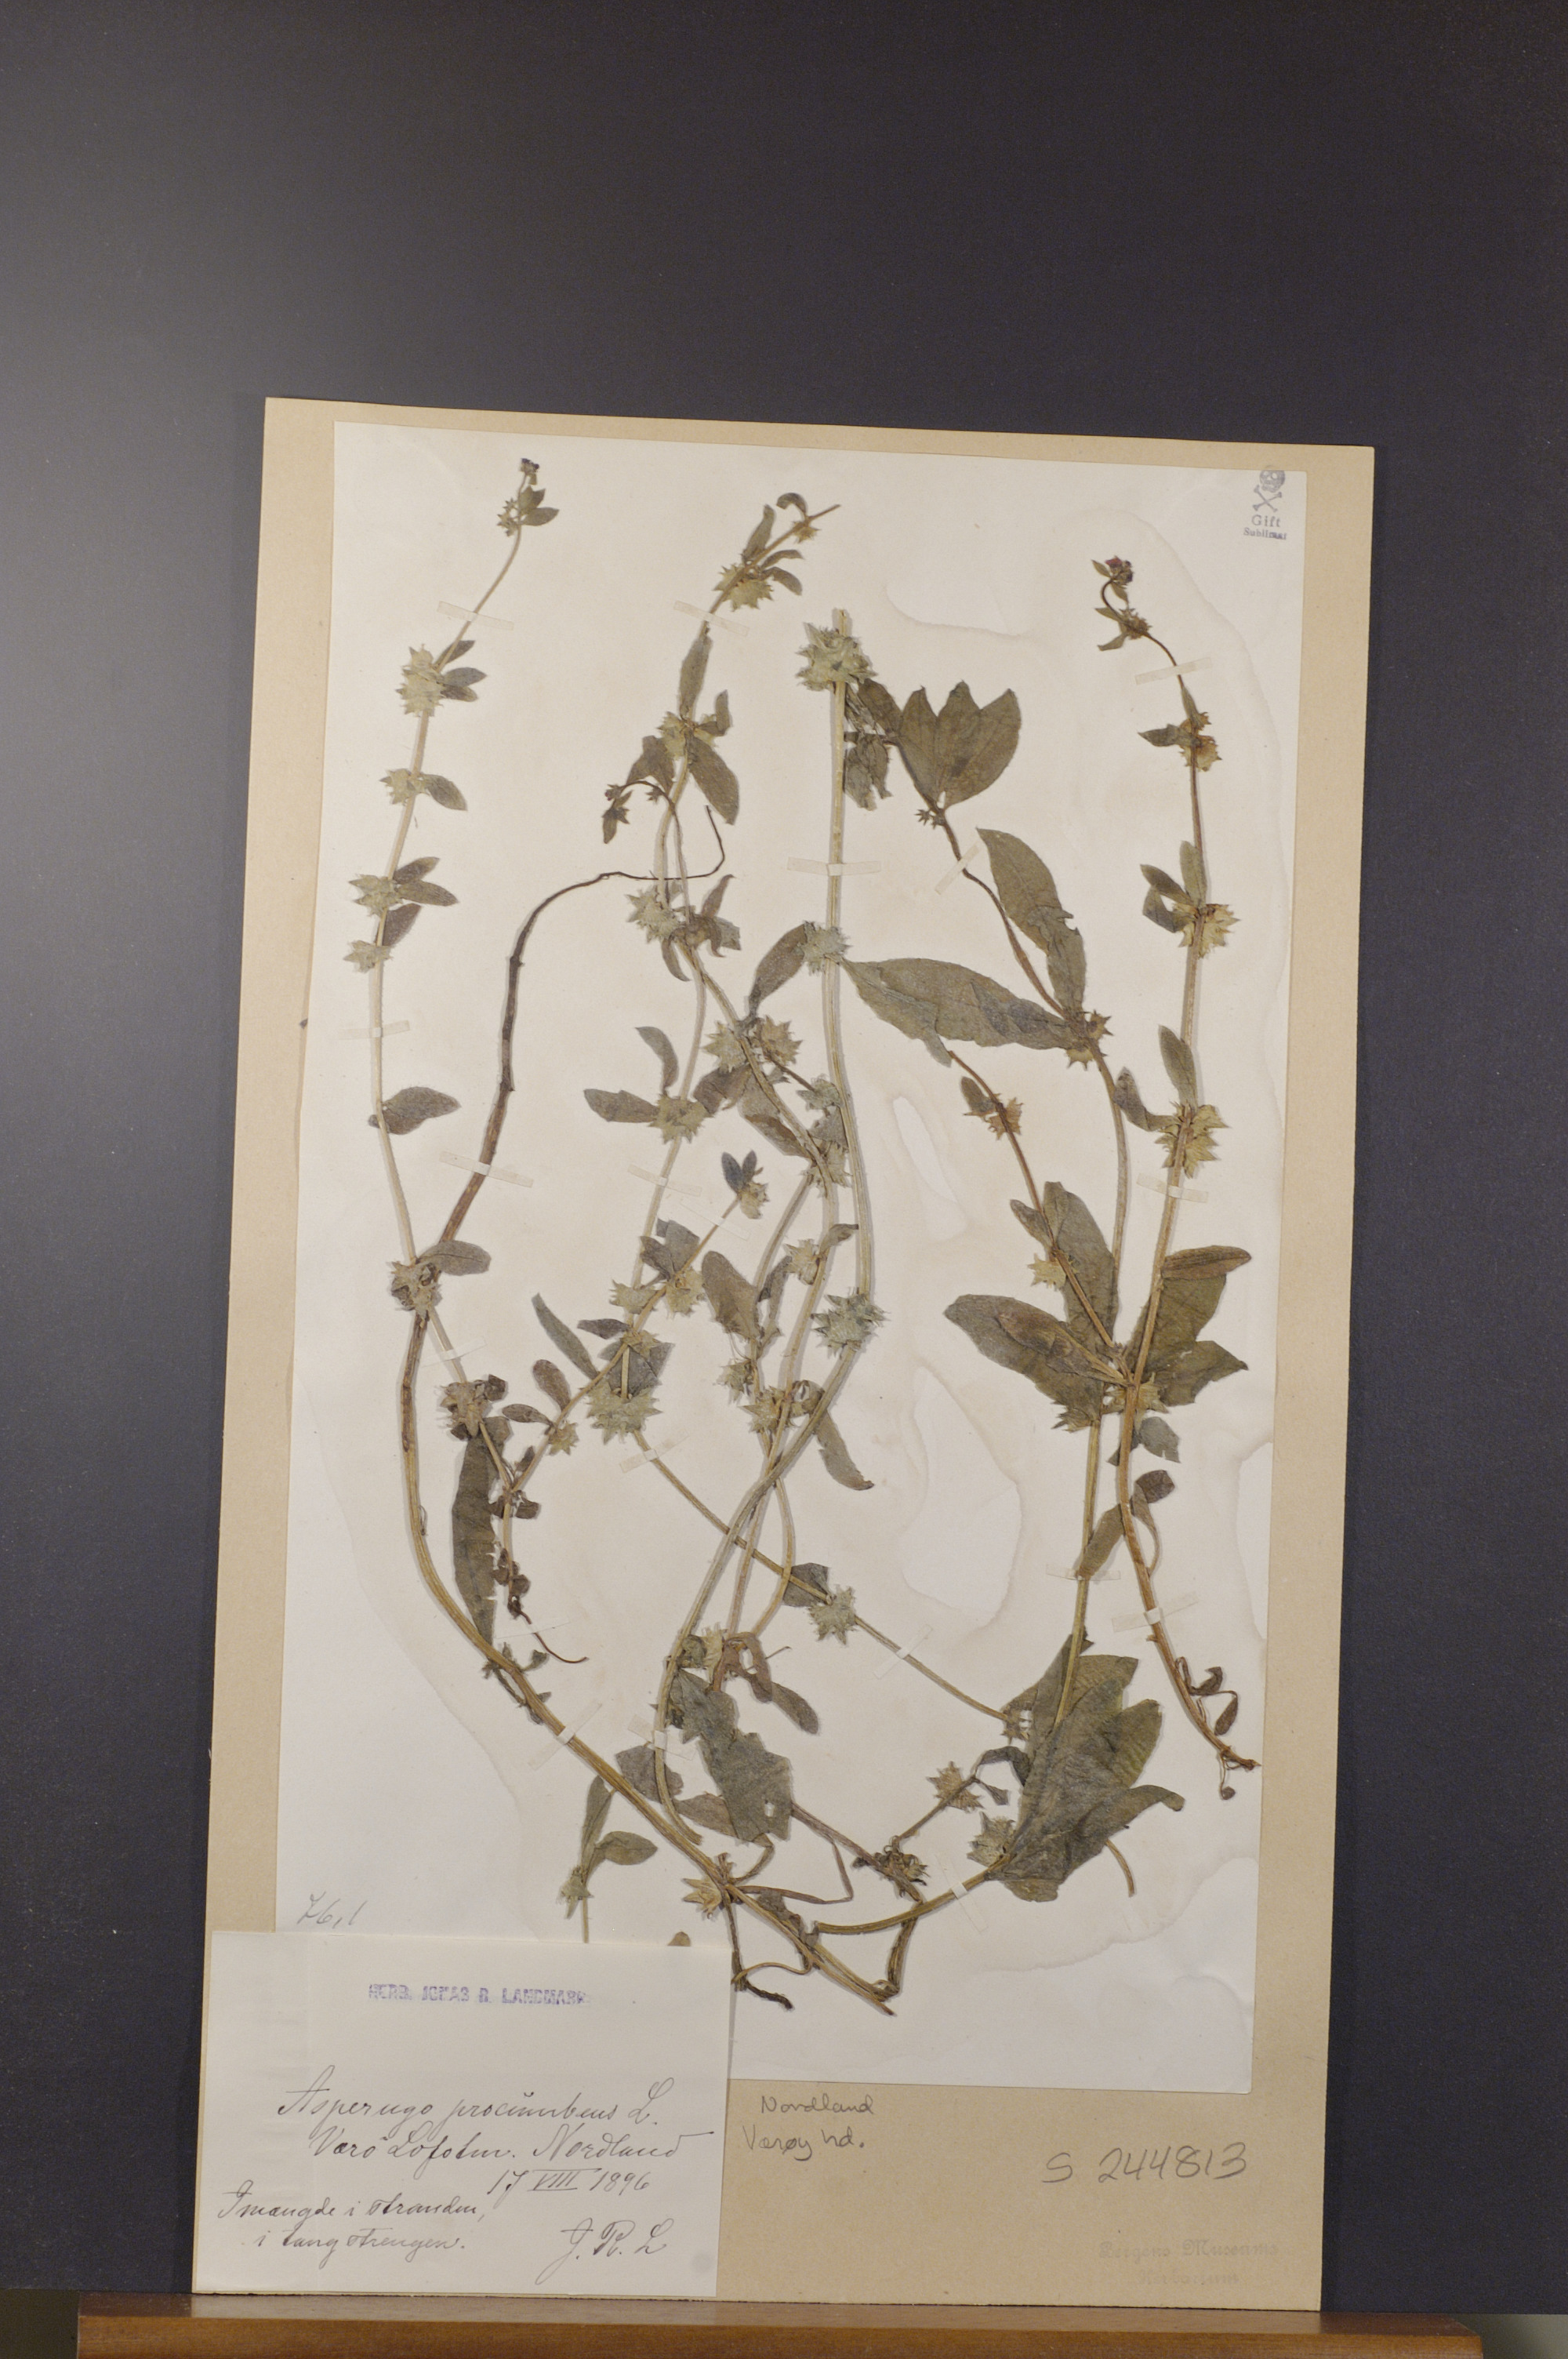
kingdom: Plantae
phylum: Tracheophyta
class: Magnoliopsida
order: Boraginales
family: Boraginaceae
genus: Asperugo
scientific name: Asperugo procumbens
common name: Madwort
